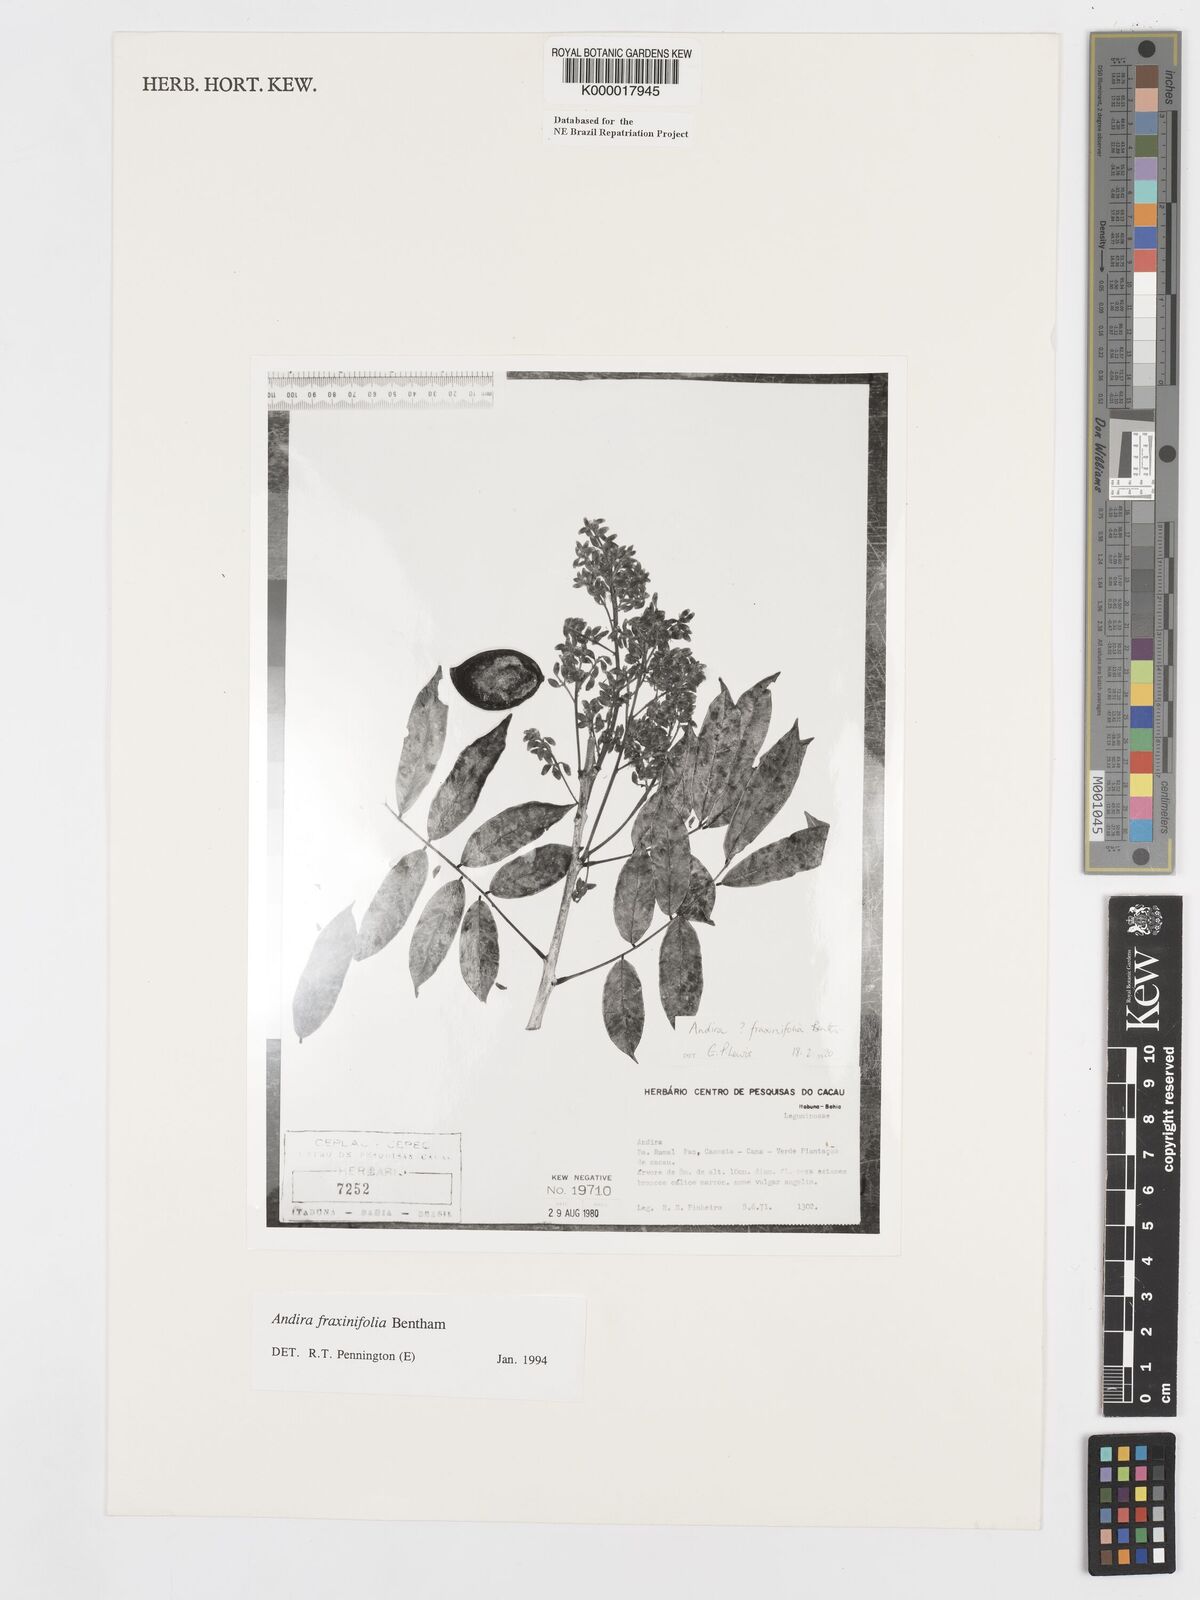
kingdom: Plantae
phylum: Tracheophyta
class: Magnoliopsida
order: Fabales
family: Fabaceae
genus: Andira
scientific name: Andira fraxinifolia
